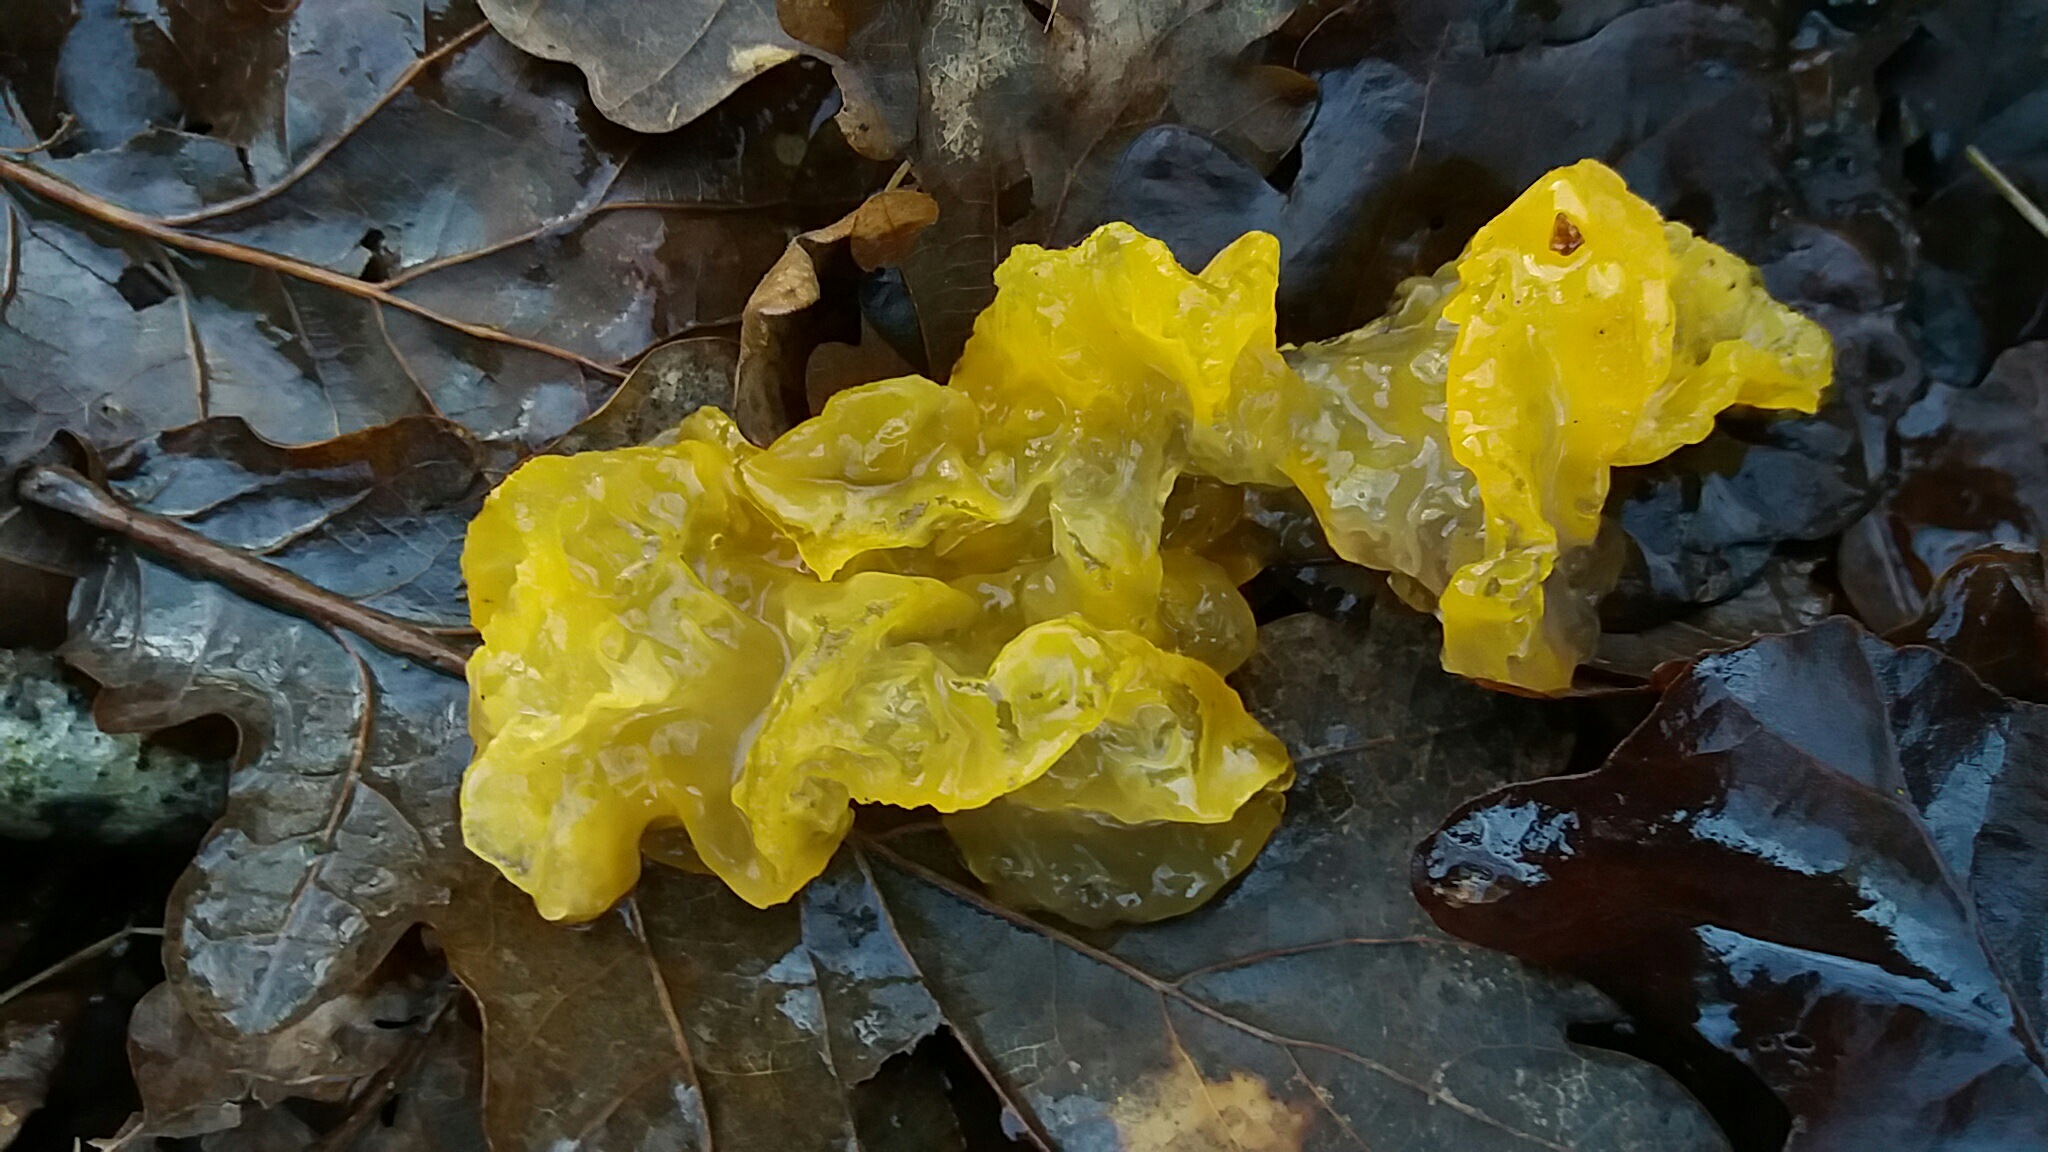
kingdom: Fungi
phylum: Basidiomycota
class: Tremellomycetes
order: Tremellales
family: Tremellaceae
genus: Tremella
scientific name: Tremella mesenterica
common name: gul bævresvamp
